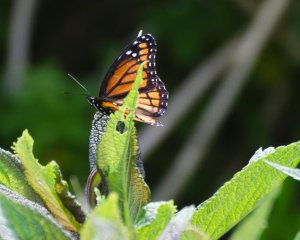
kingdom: Animalia
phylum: Arthropoda
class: Insecta
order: Lepidoptera
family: Nymphalidae
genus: Limenitis
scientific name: Limenitis archippus
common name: Viceroy
